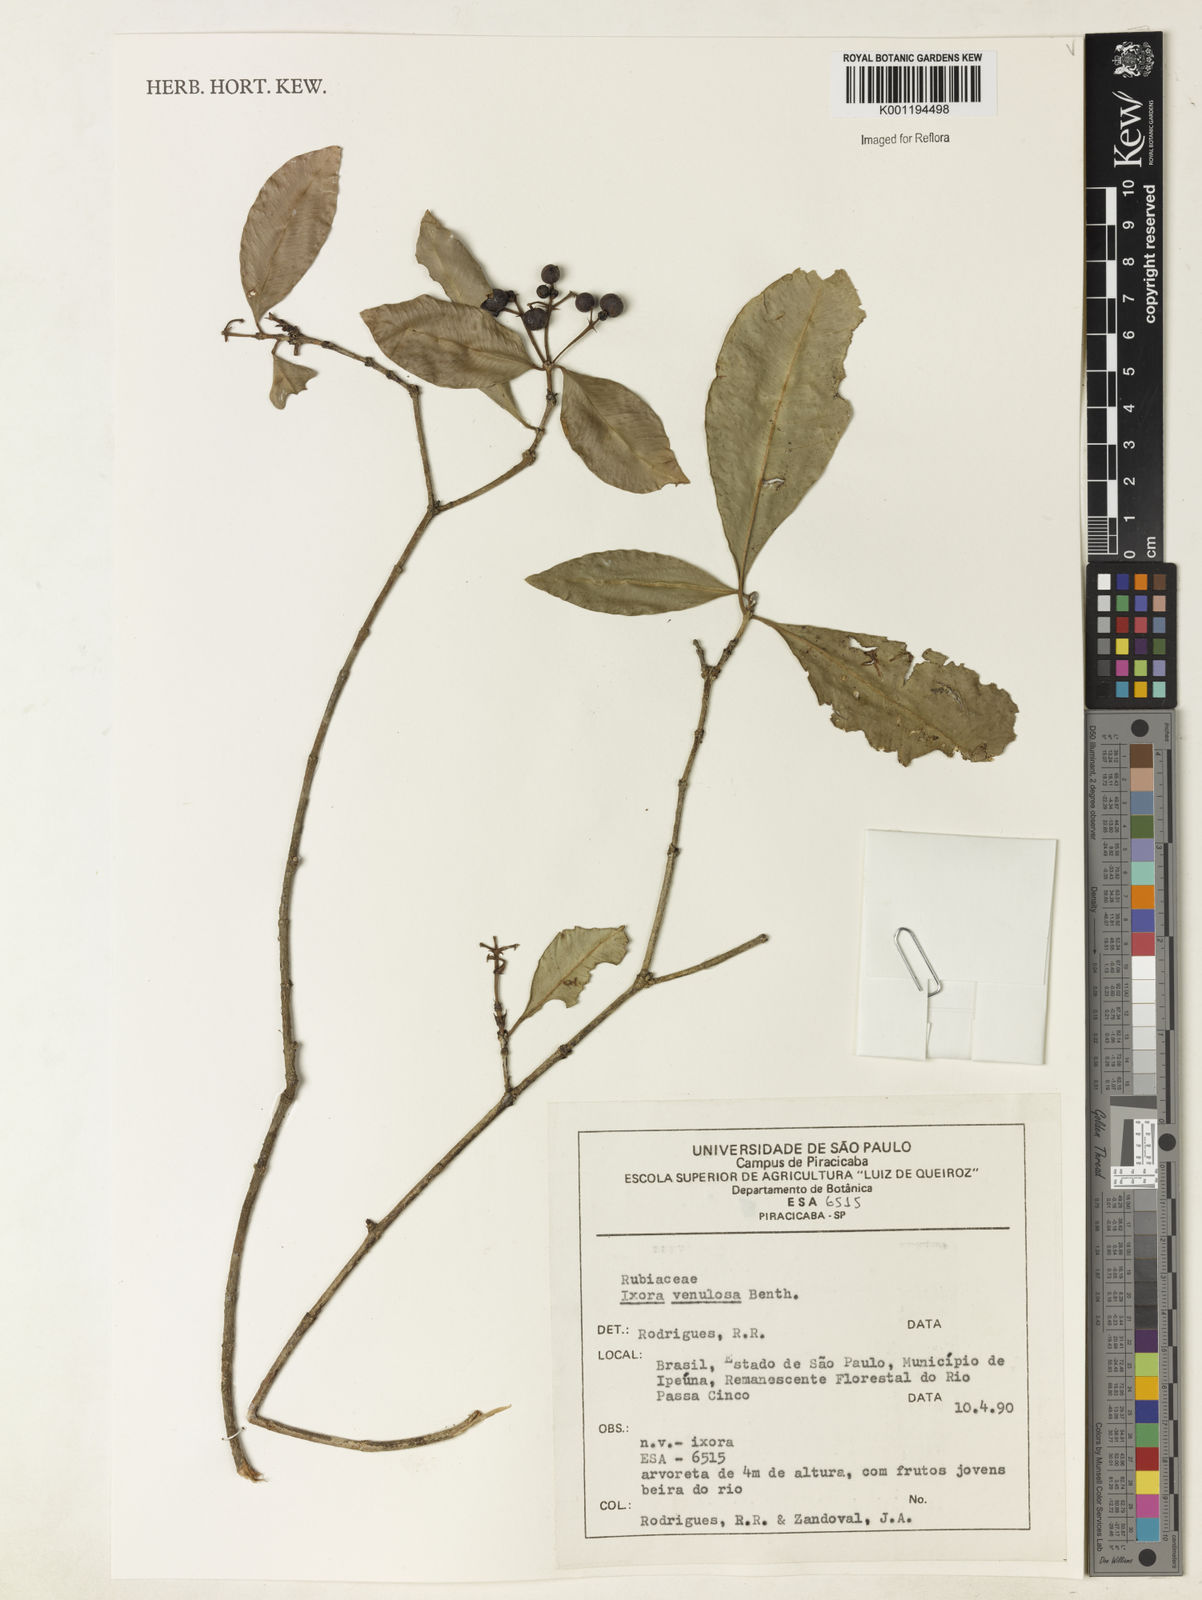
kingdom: Plantae
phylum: Tracheophyta
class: Magnoliopsida
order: Gentianales
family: Rubiaceae
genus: Ixora
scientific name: Ixora venulosa
